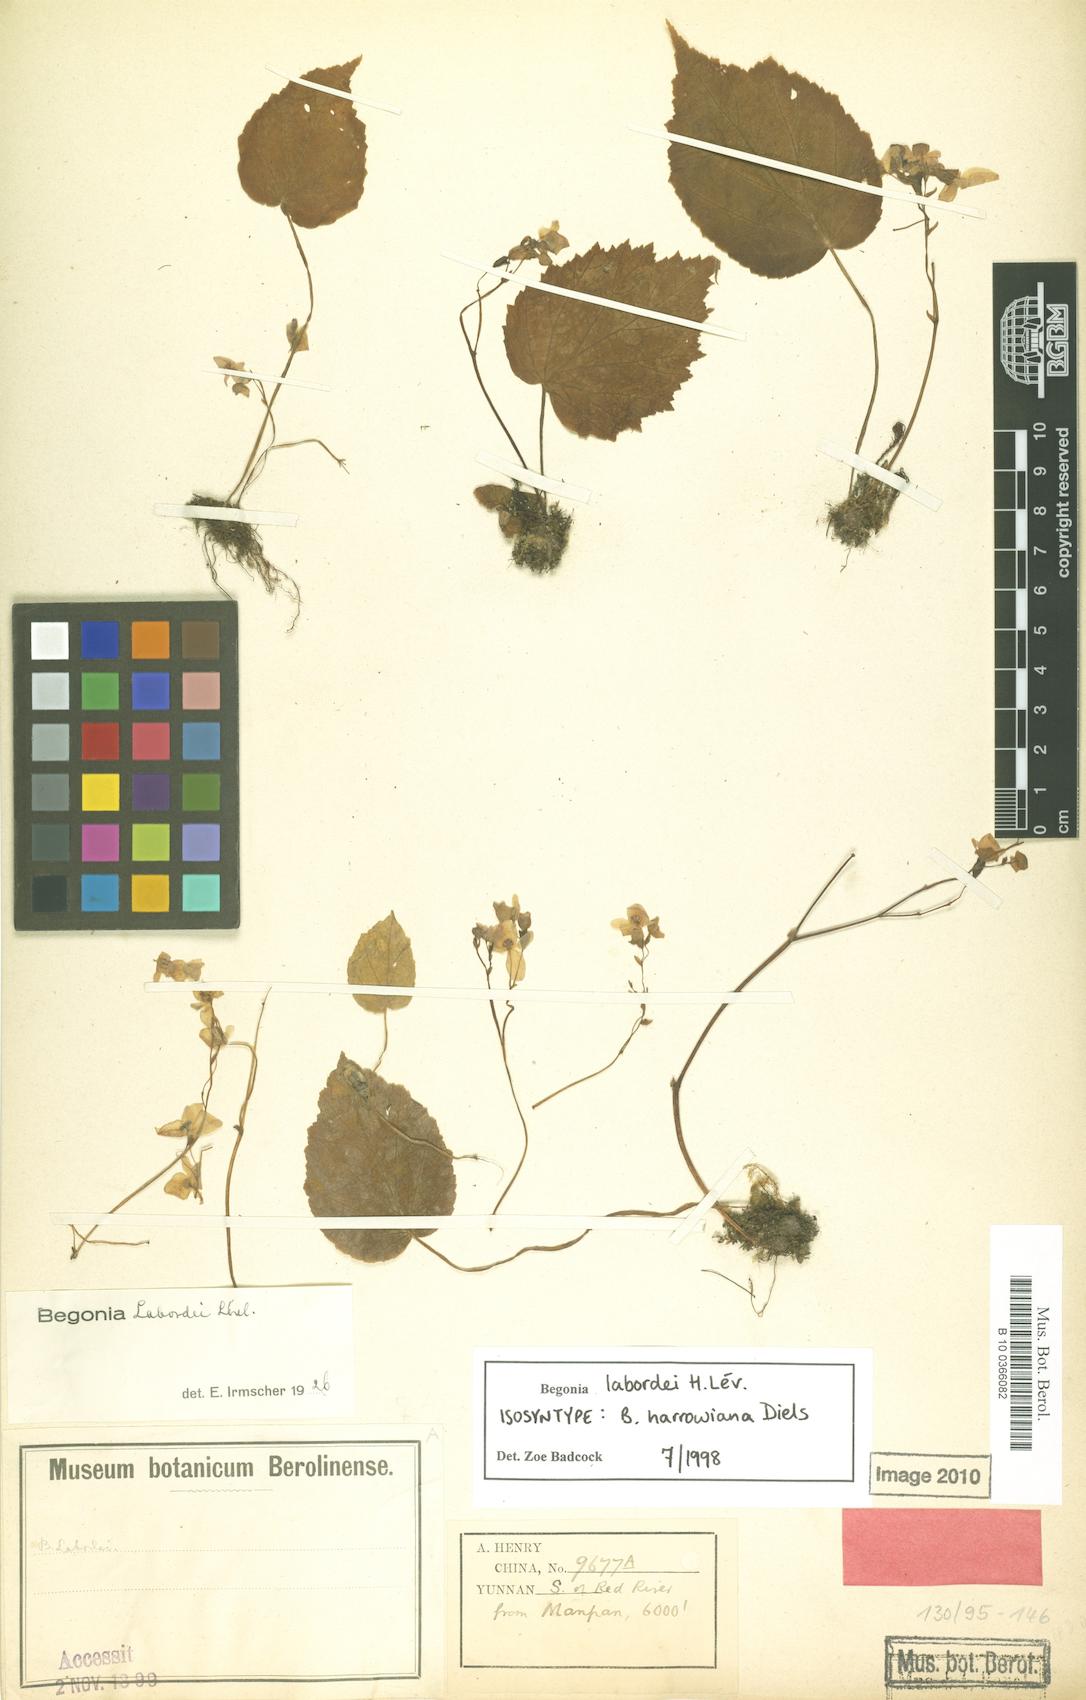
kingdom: Plantae
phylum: Tracheophyta
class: Magnoliopsida
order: Cucurbitales
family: Begoniaceae
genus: Begonia
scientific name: Begonia labordei
